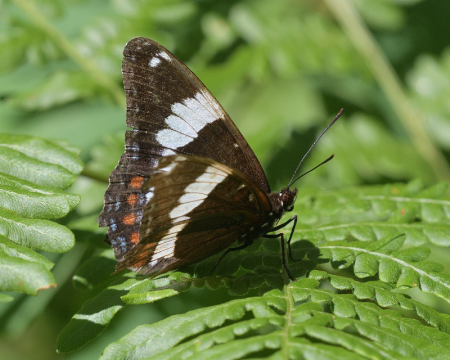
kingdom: Animalia
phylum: Arthropoda
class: Insecta
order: Lepidoptera
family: Nymphalidae
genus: Limenitis
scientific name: Limenitis arthemis
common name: Red-spotted Admiral
